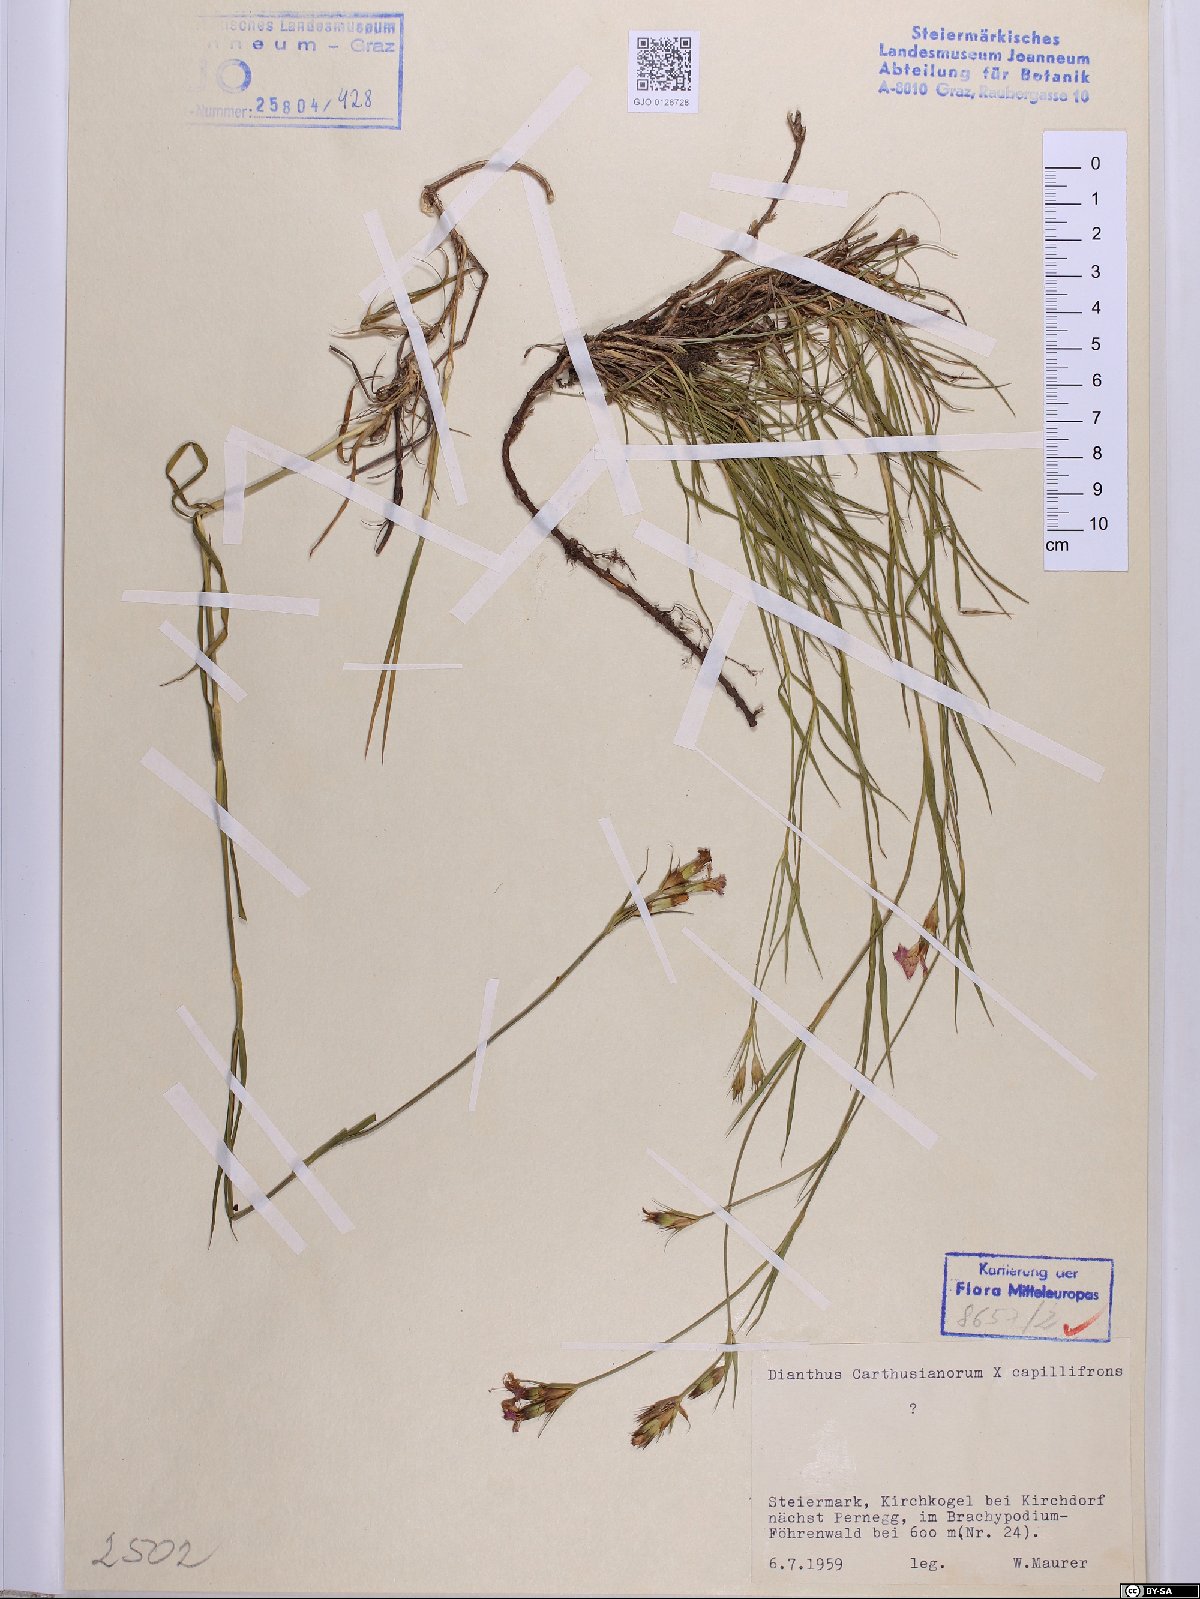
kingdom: Plantae
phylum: Tracheophyta
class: Magnoliopsida
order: Caryophyllales
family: Caryophyllaceae
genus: Dianthus
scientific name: Dianthus carthusianorum
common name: Carthusian pink
